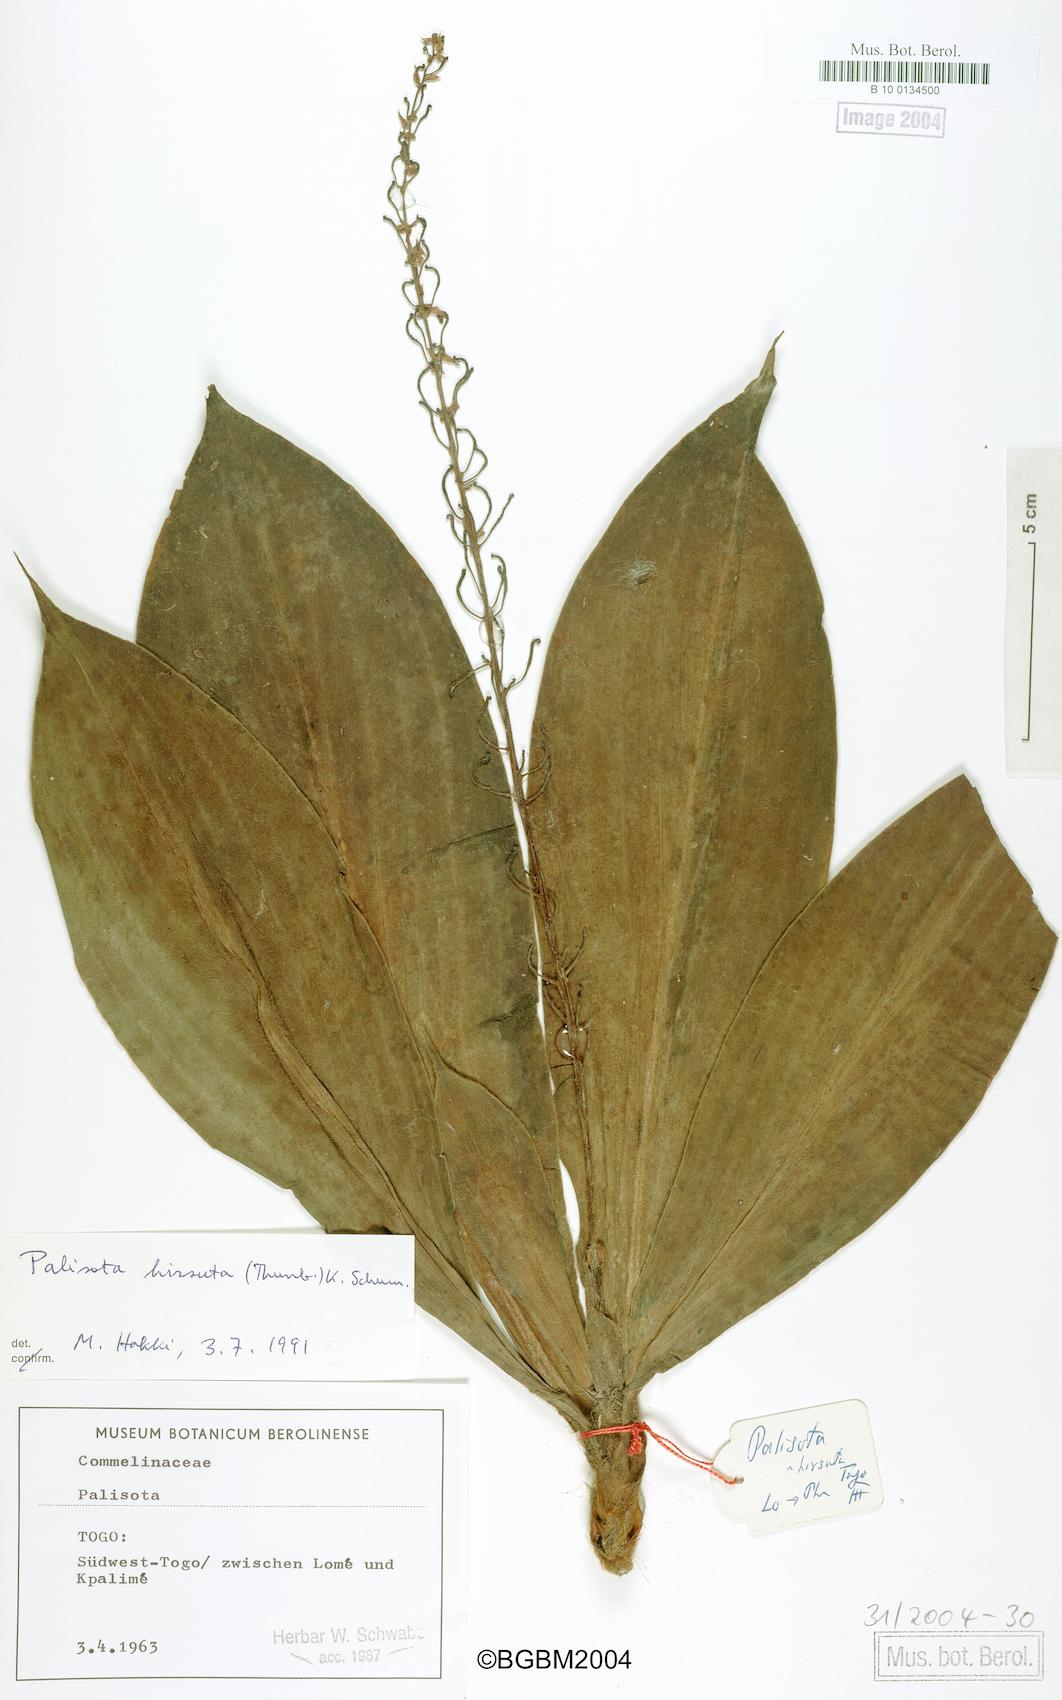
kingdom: Plantae
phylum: Tracheophyta
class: Liliopsida
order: Commelinales
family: Commelinaceae
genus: Palisota
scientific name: Palisota hirsuta
